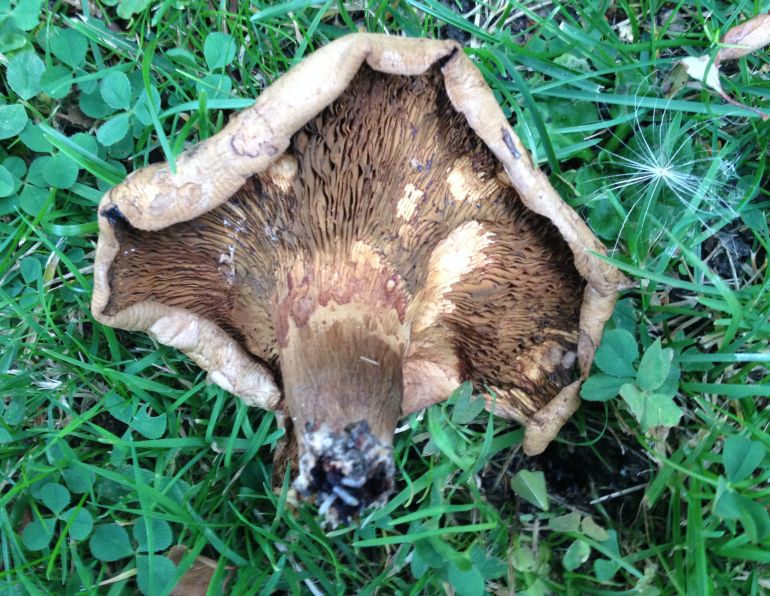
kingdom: Fungi
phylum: Basidiomycota
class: Agaricomycetes
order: Boletales
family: Paxillaceae
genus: Paxillus
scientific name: Paxillus obscurisporus
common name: mahognisporet netbladhat
